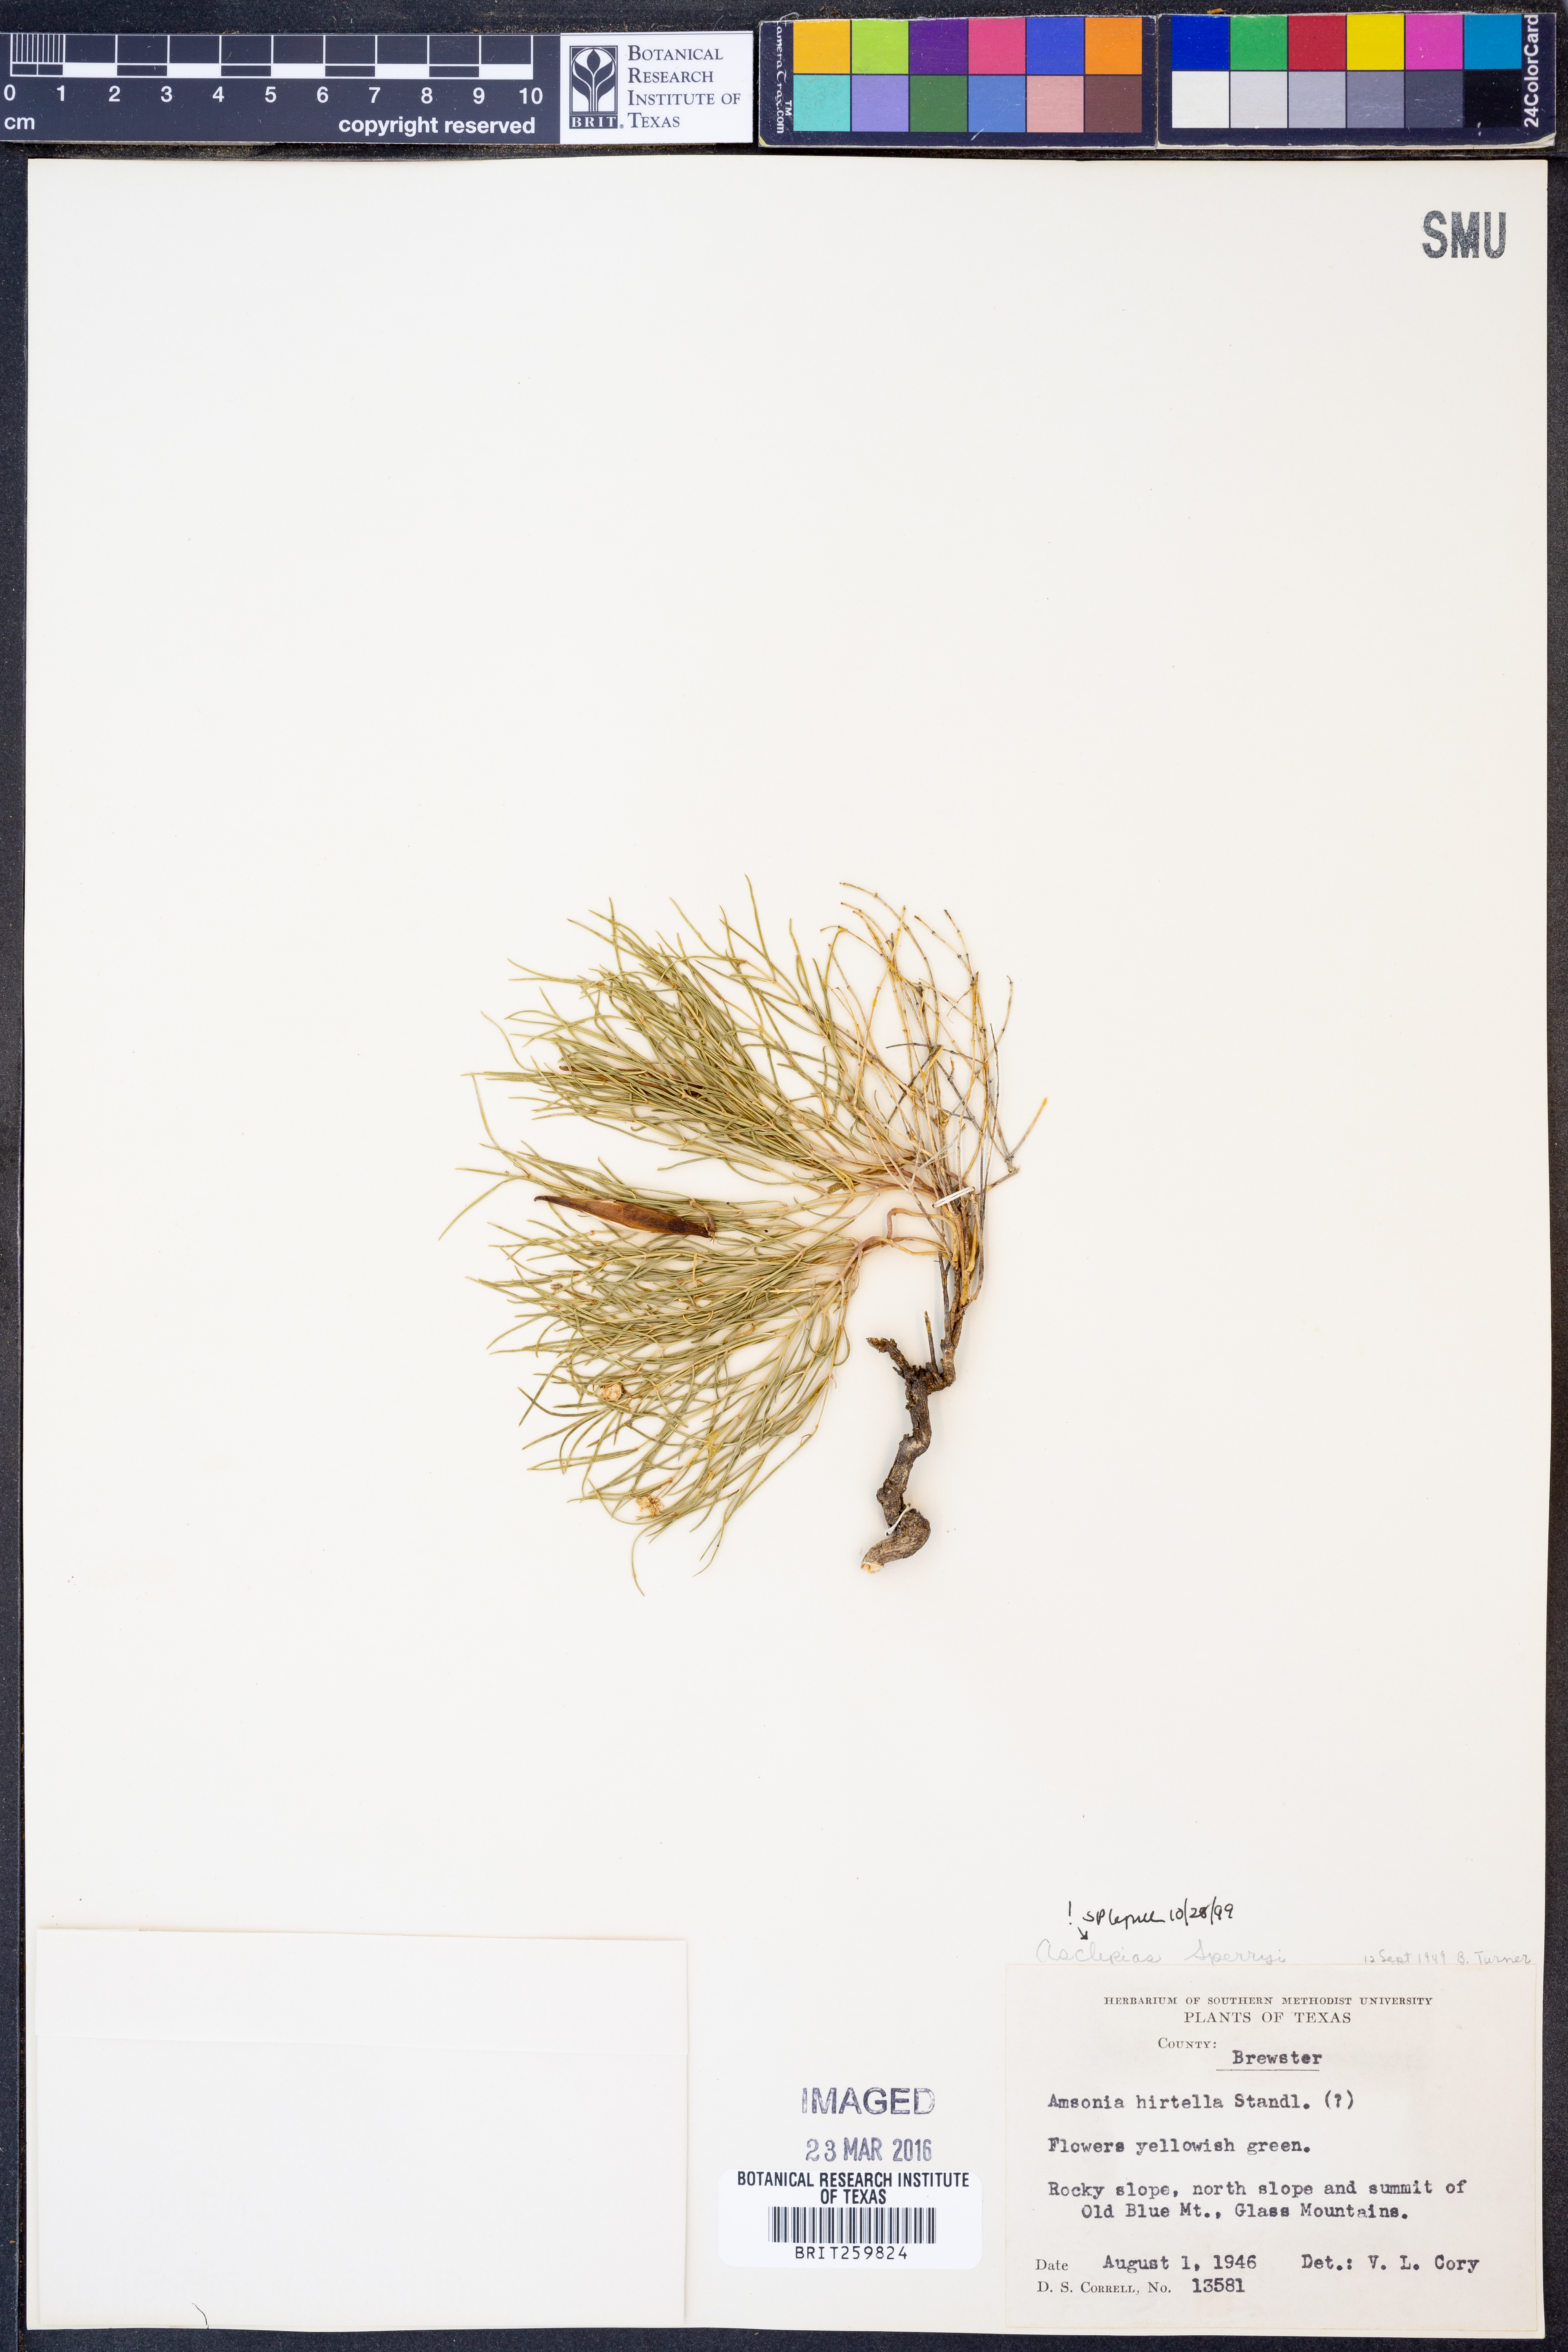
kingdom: Plantae
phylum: Tracheophyta
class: Magnoliopsida
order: Gentianales
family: Apocynaceae
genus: Asclepias
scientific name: Asclepias sperryi
